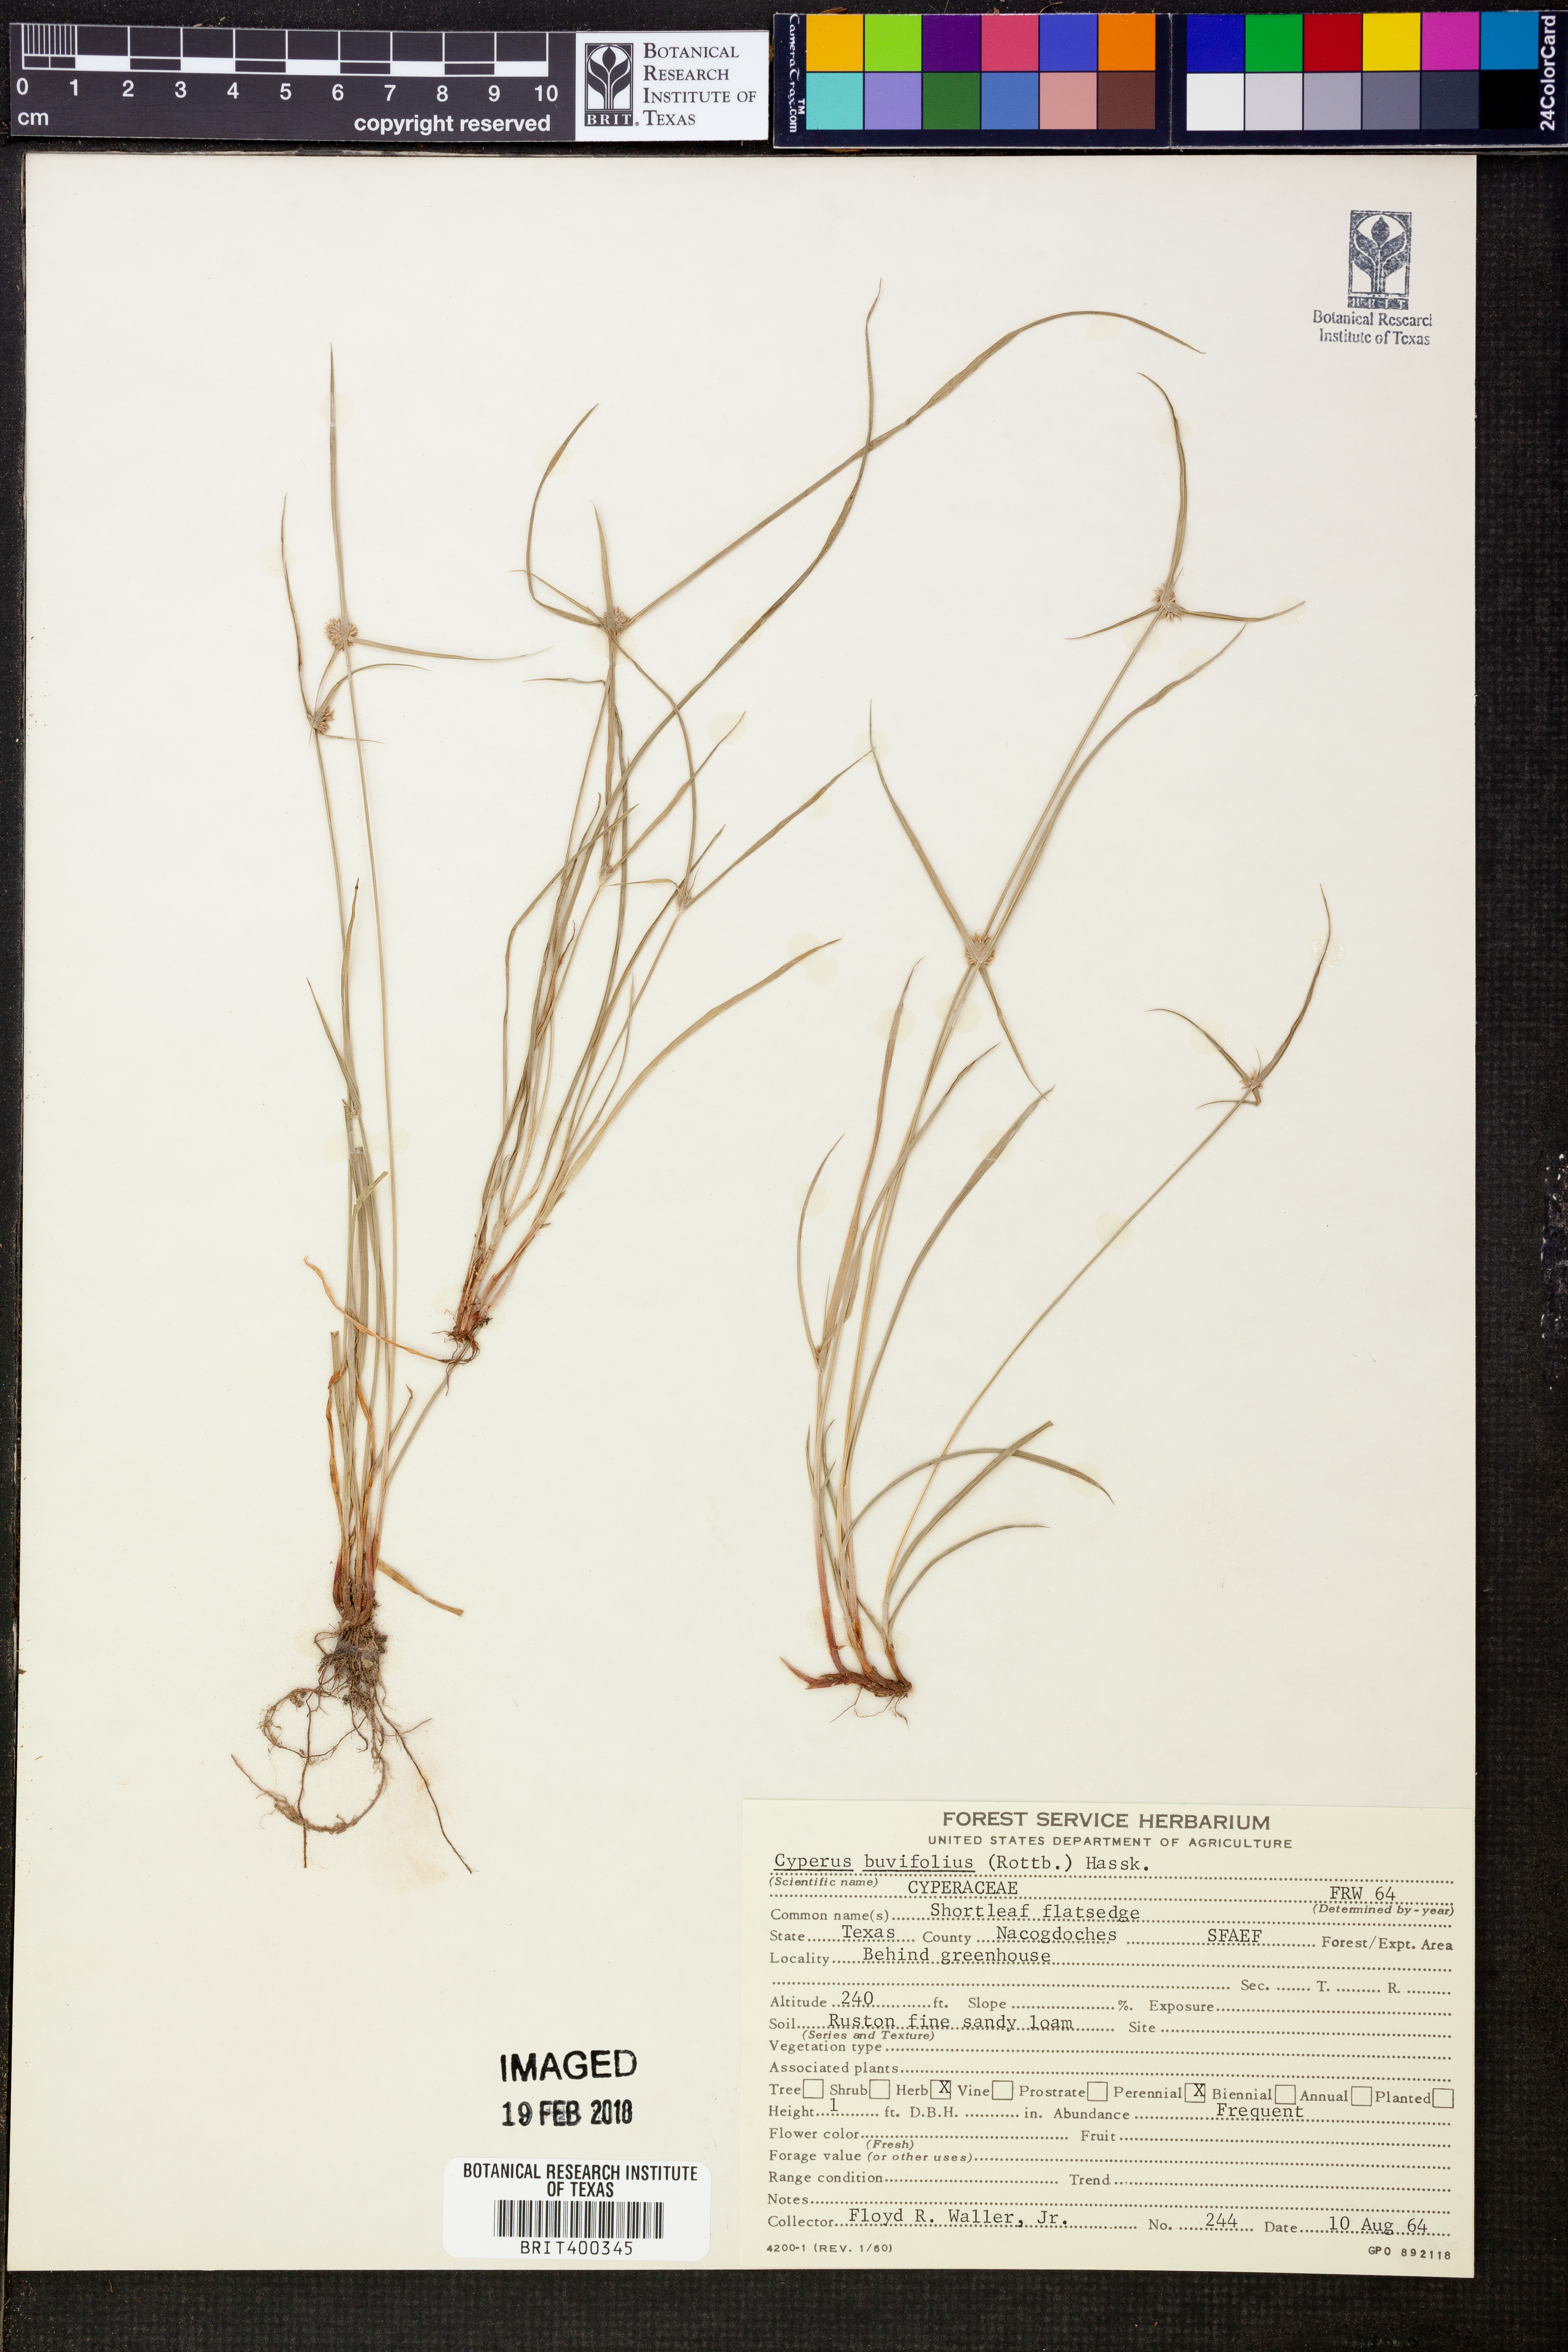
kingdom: Plantae
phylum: Tracheophyta
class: Liliopsida
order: Poales
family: Cyperaceae
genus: Cyperus
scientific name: Cyperus brevifolius
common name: Globe kyllinga
